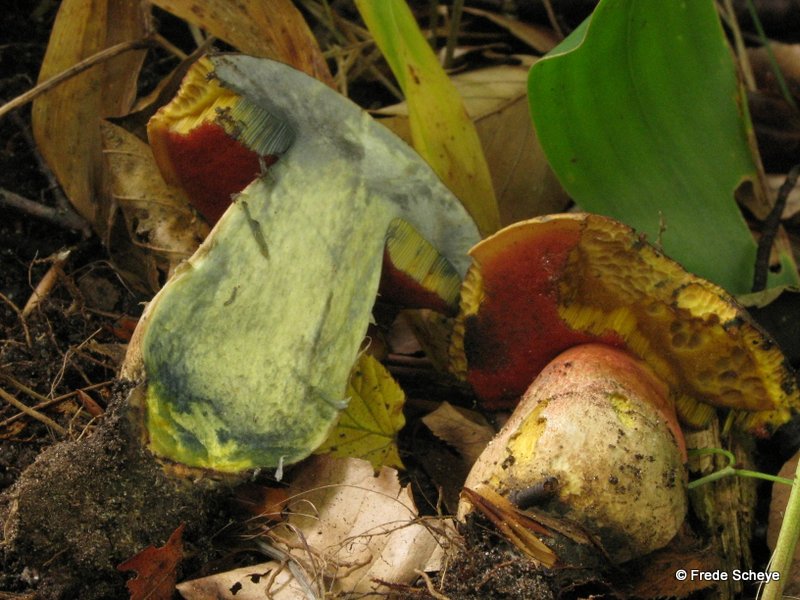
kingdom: Fungi
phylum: Basidiomycota
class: Agaricomycetes
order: Boletales
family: Boletaceae
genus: Neoboletus
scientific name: Neoboletus erythropus
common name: punktstokket indigorørhat
